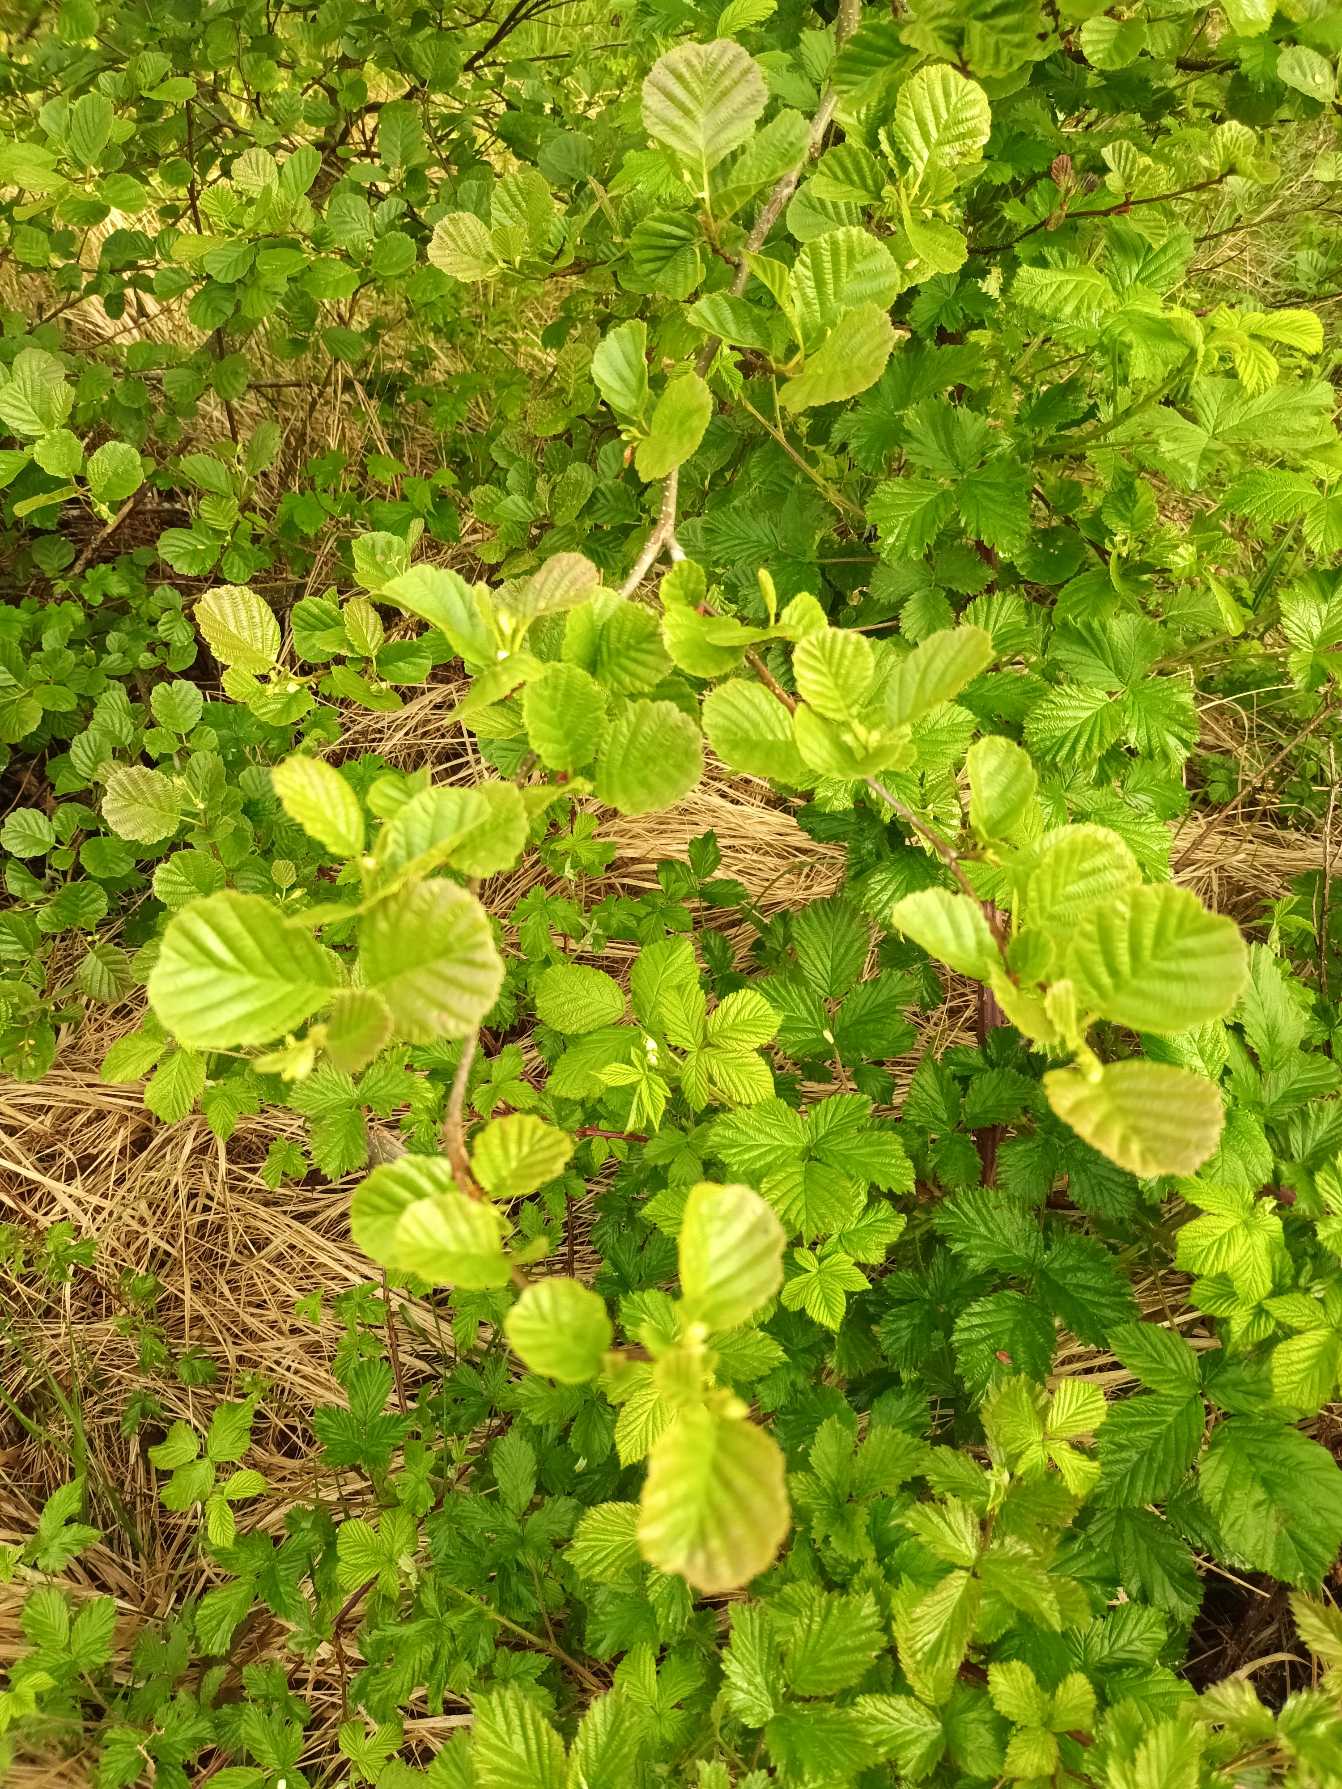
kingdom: Plantae
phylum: Tracheophyta
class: Magnoliopsida
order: Fagales
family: Betulaceae
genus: Alnus
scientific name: Alnus glutinosa
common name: Rød-el
